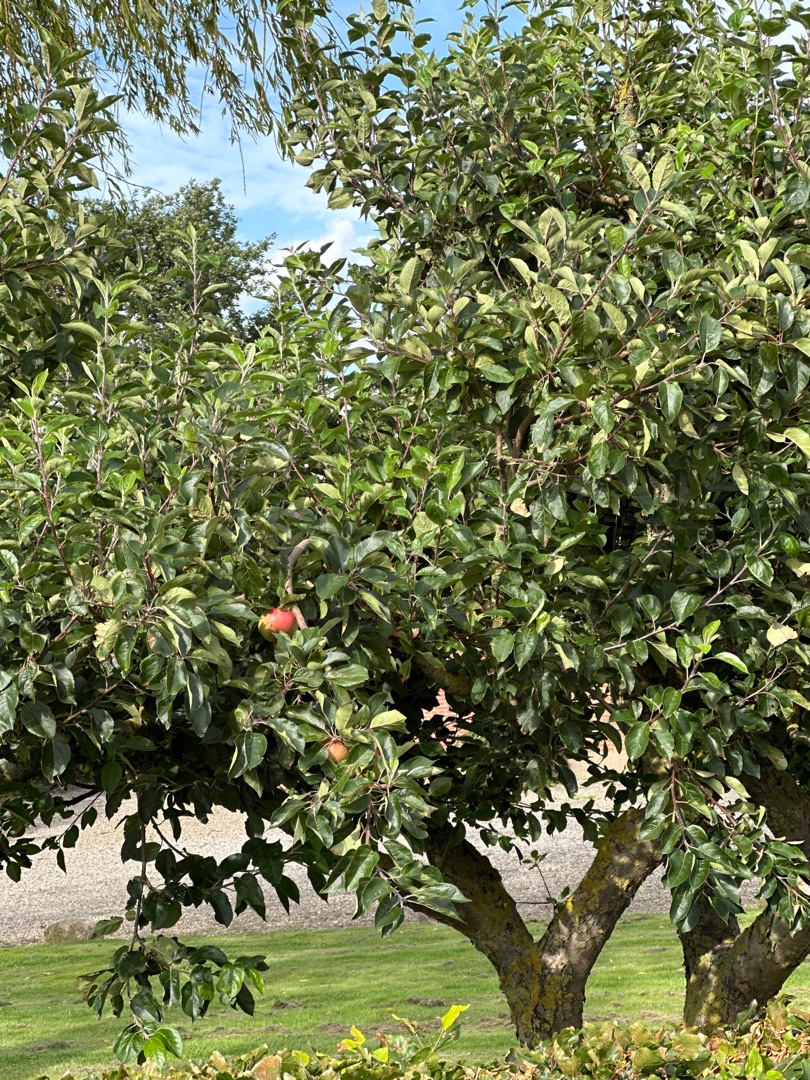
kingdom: Plantae
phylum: Tracheophyta
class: Magnoliopsida
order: Rosales
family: Rosaceae
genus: Malus
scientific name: Malus domestica
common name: Sød-æble
